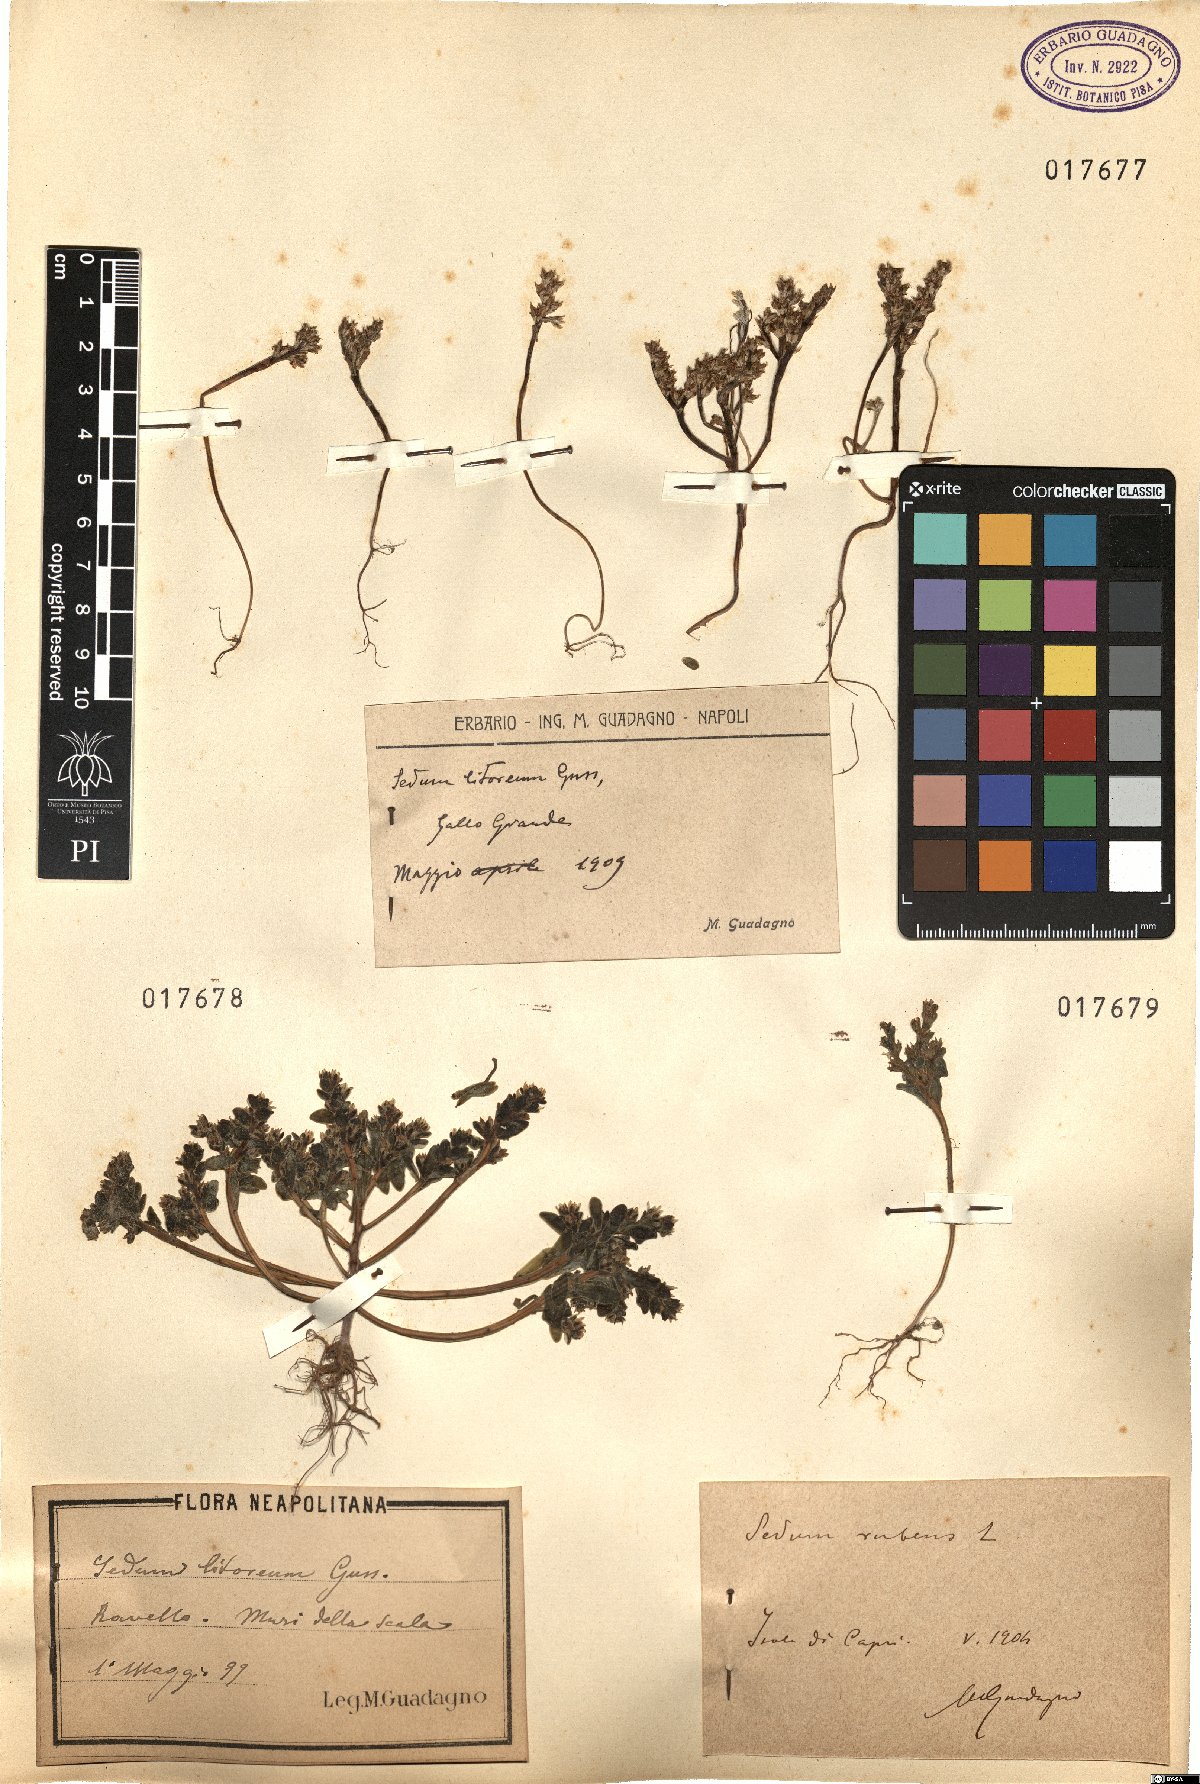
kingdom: Plantae
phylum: Tracheophyta
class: Magnoliopsida
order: Saxifragales
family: Crassulaceae
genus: Sedum
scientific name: Sedum litoreum
